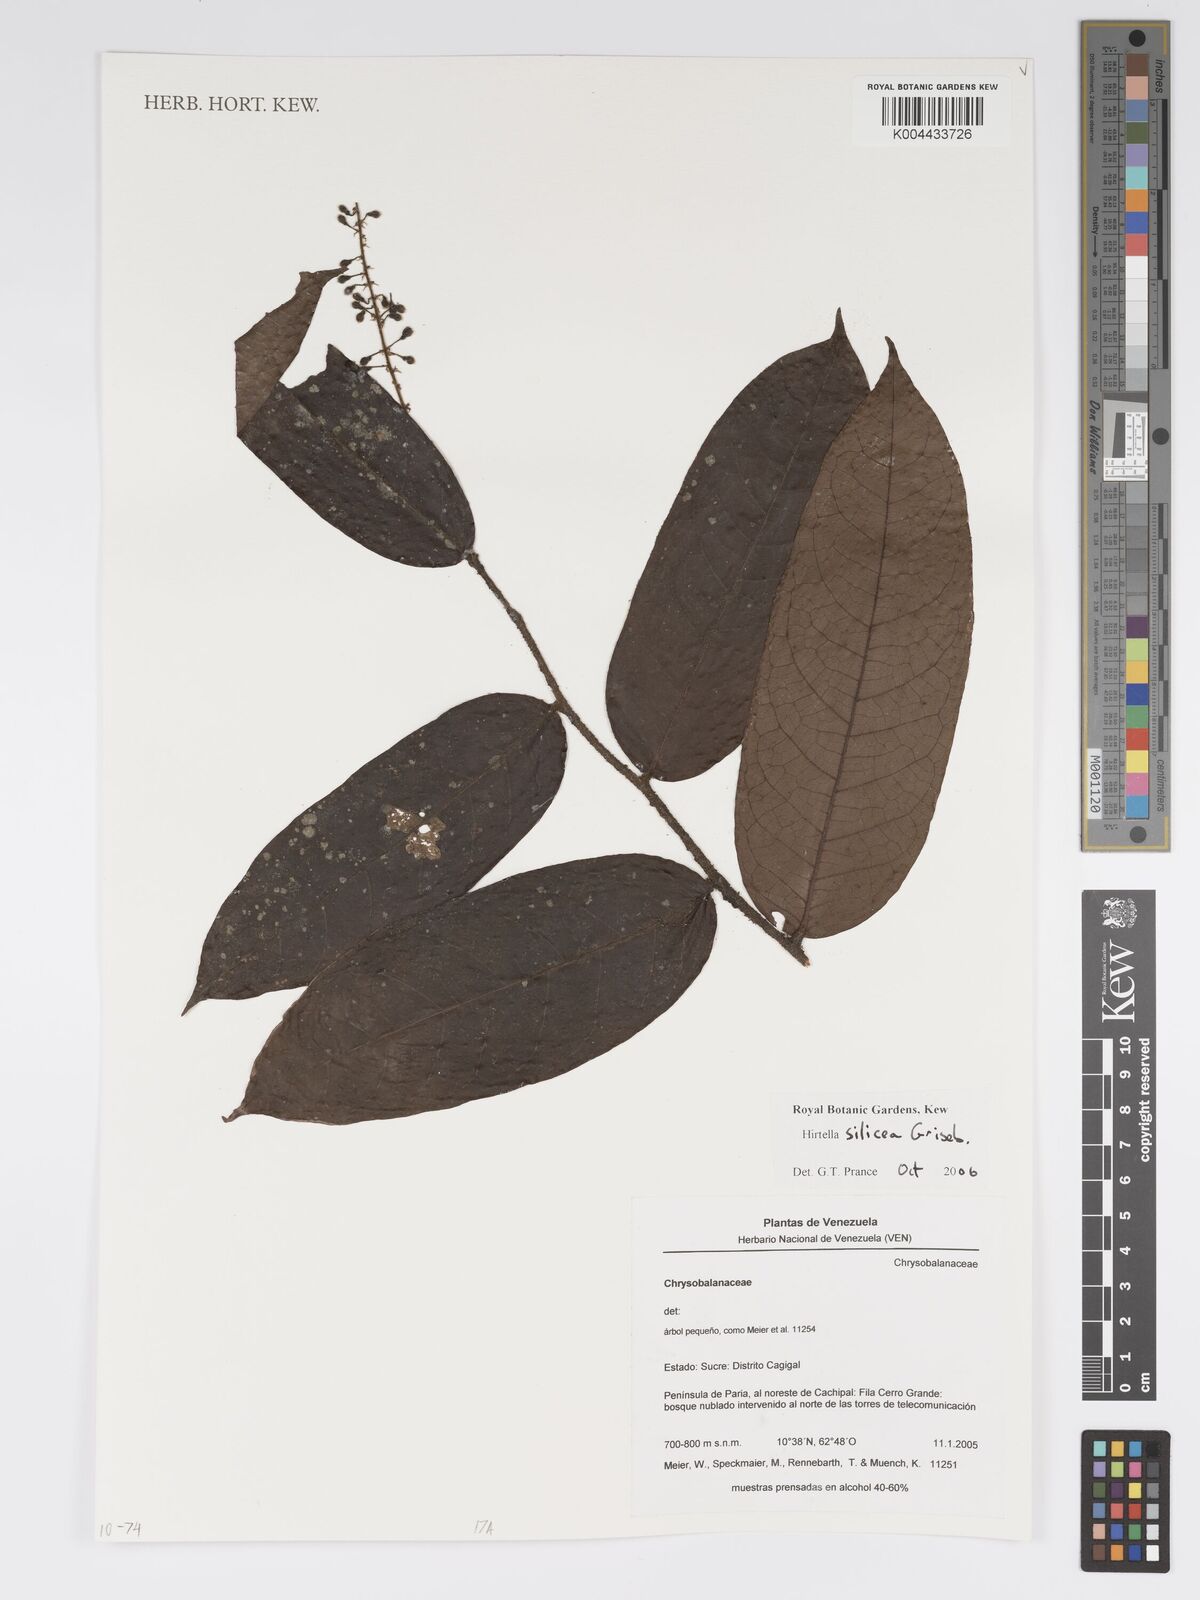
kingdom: Plantae
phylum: Tracheophyta
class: Magnoliopsida
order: Malpighiales
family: Chrysobalanaceae
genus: Hirtella
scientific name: Hirtella silicea
